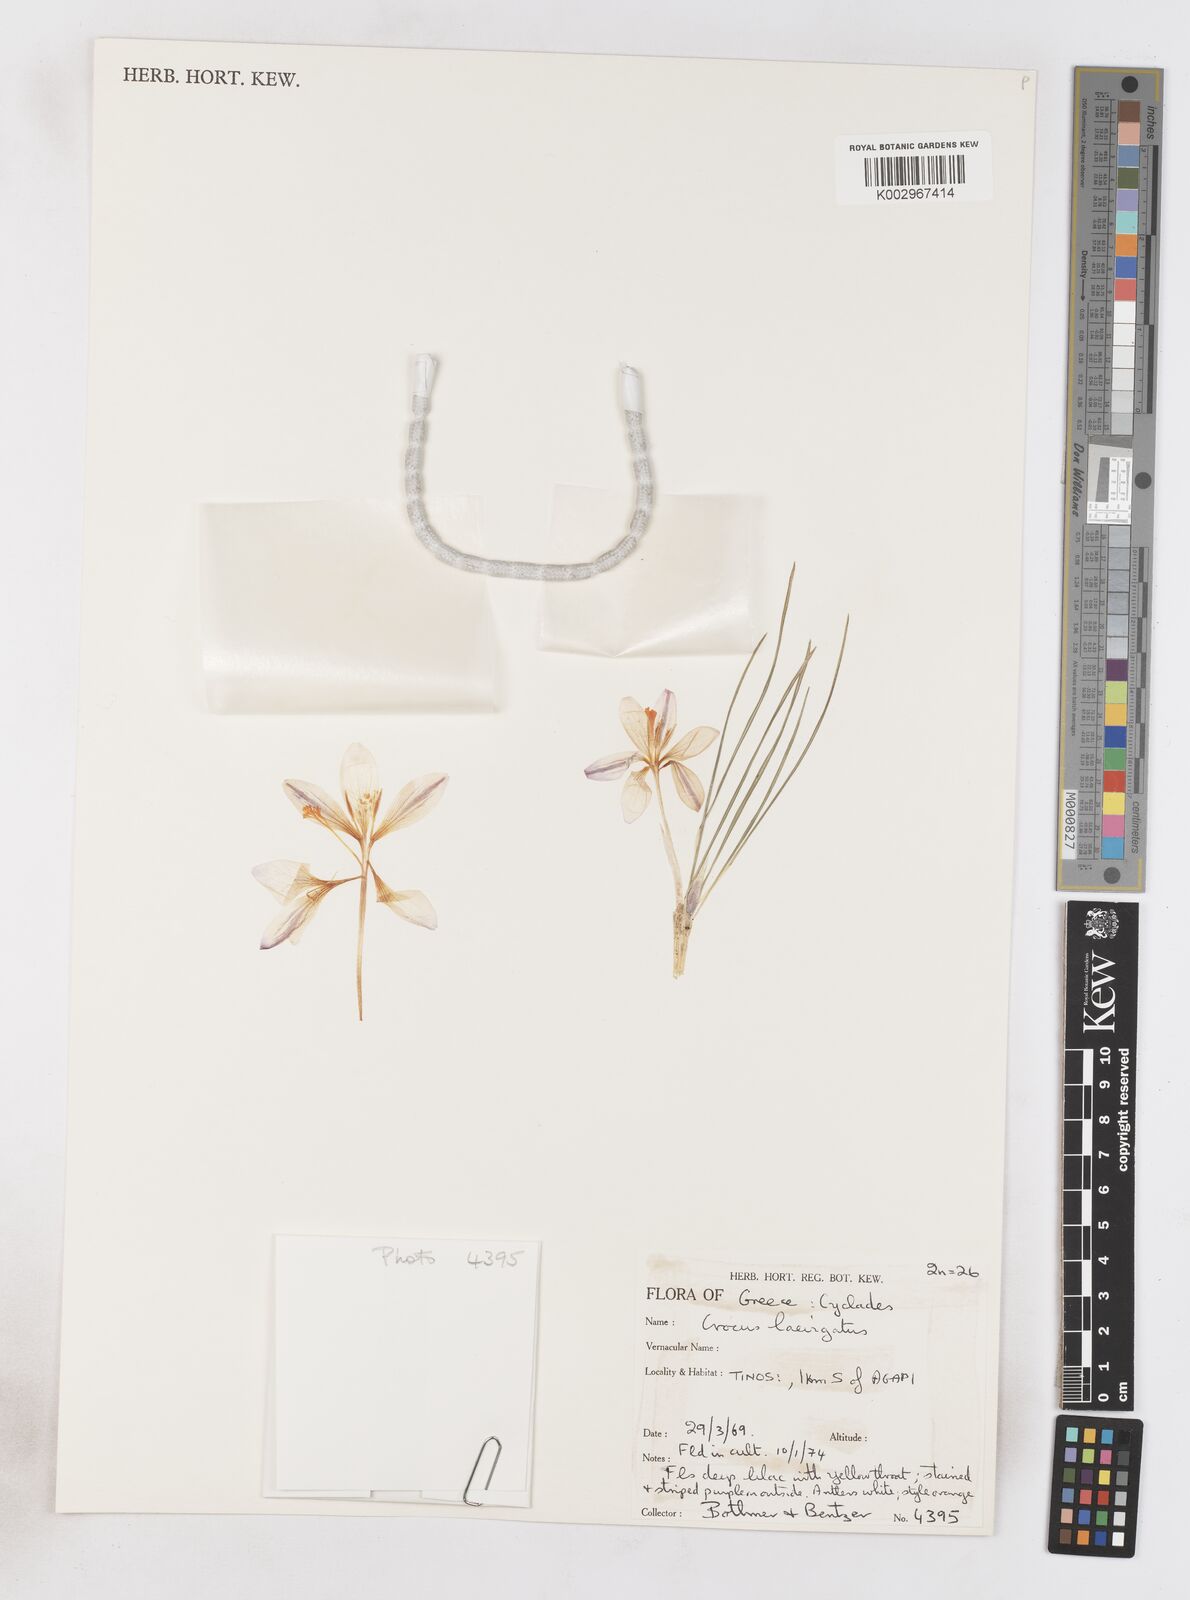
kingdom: Plantae
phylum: Tracheophyta
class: Liliopsida
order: Asparagales
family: Iridaceae
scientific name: Iridaceae
